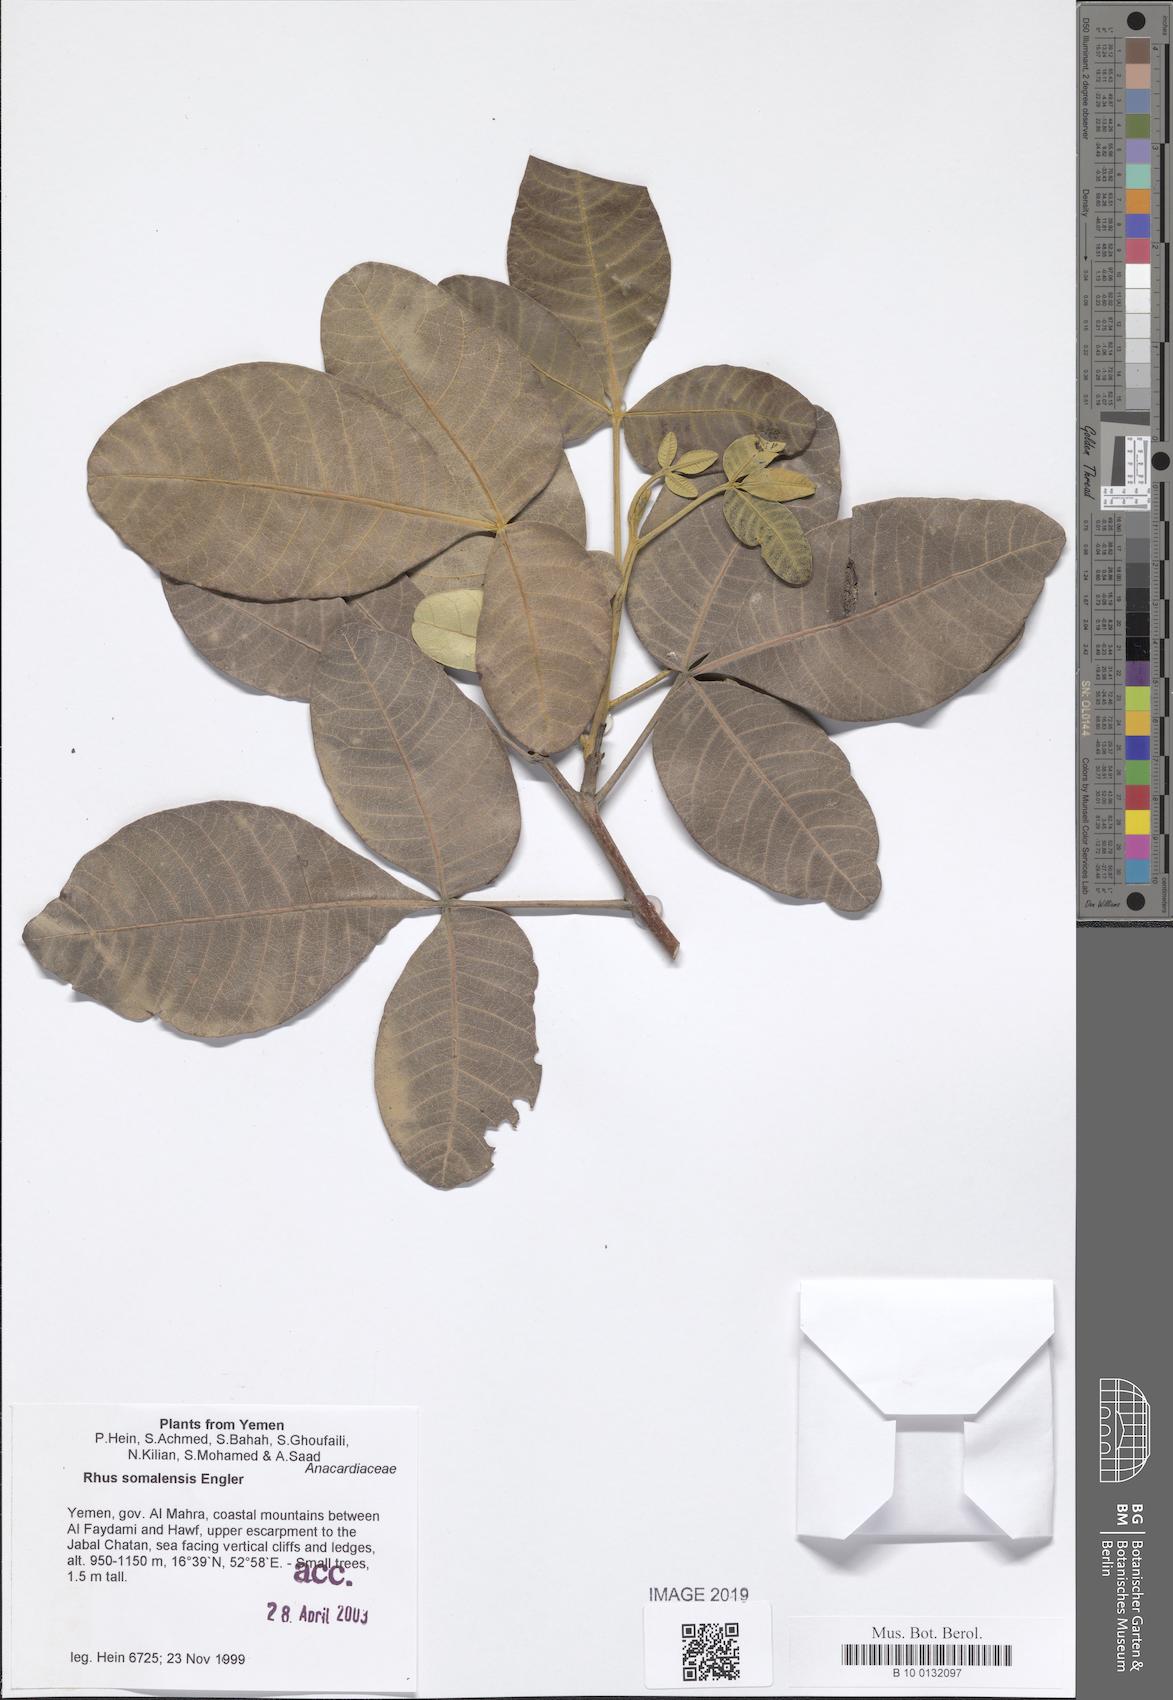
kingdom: Plantae
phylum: Tracheophyta
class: Magnoliopsida
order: Sapindales
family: Anacardiaceae
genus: Searsia
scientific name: Searsia somalensis
